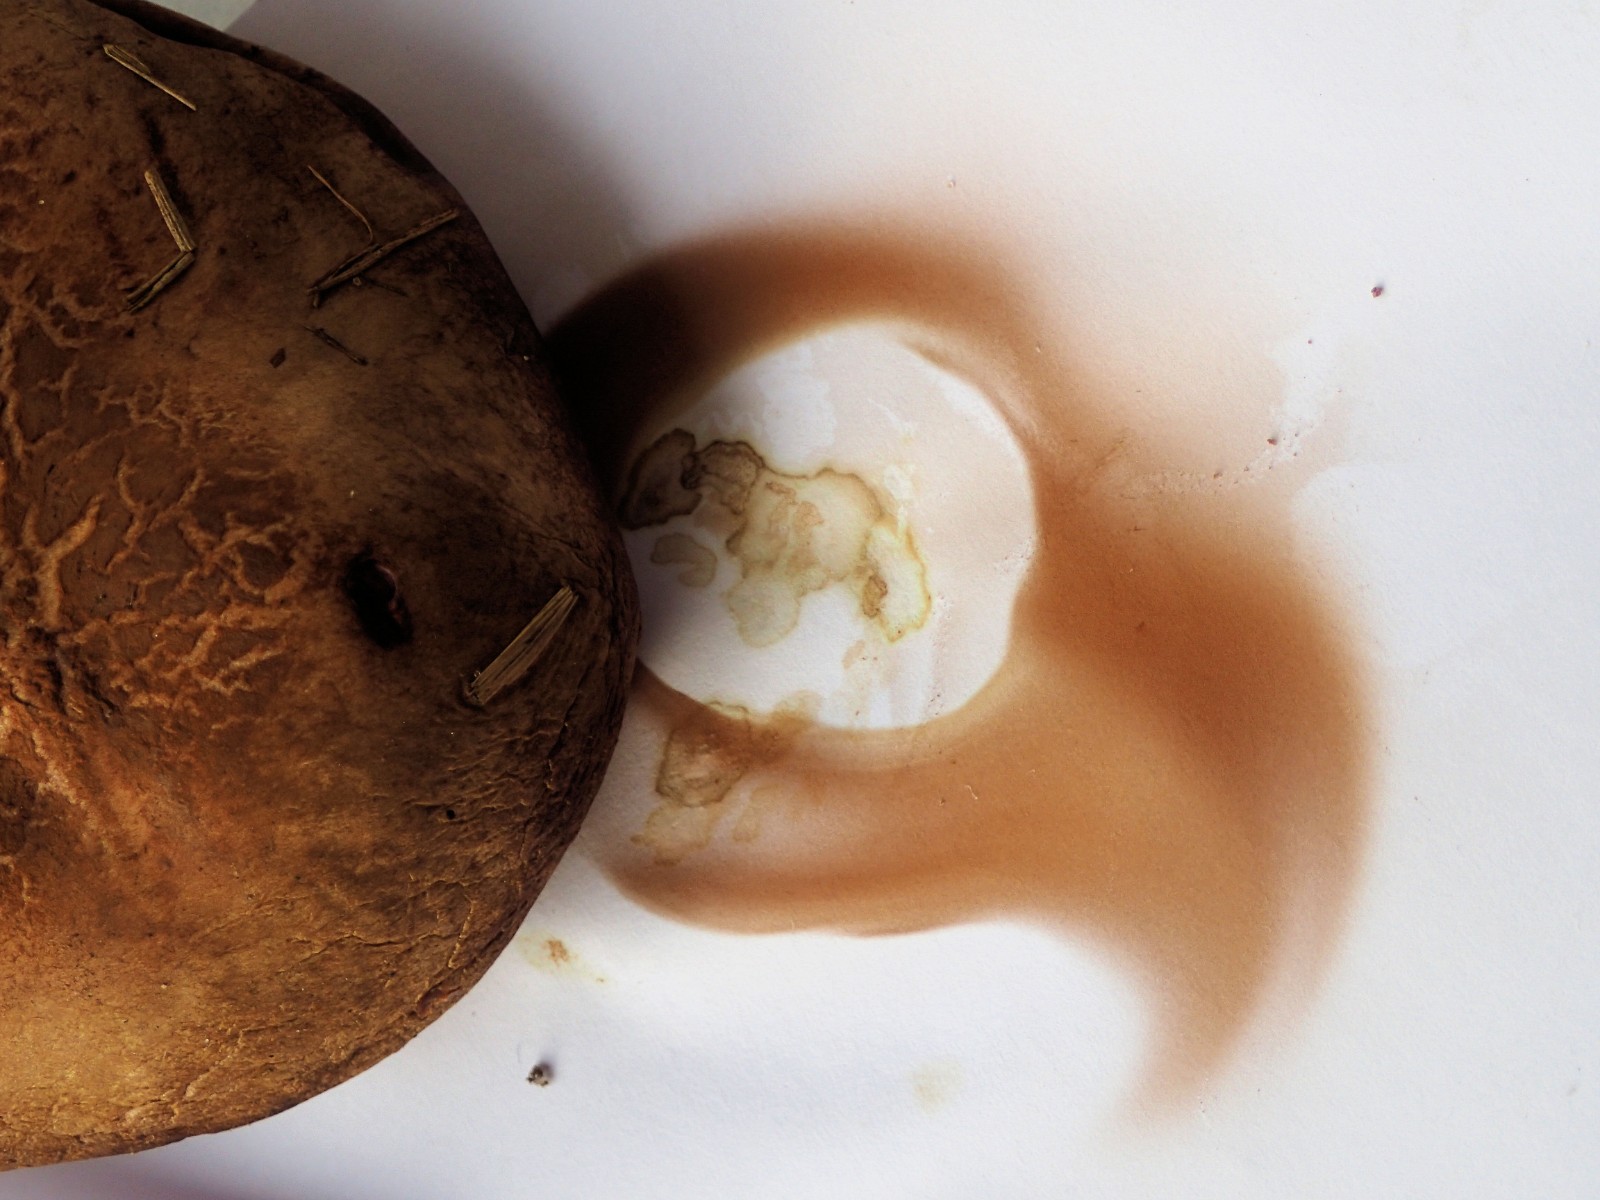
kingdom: Fungi
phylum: Basidiomycota
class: Agaricomycetes
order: Boletales
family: Paxillaceae
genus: Paxillus
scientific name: Paxillus obscurisporus
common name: mahognisporet netbladhat
